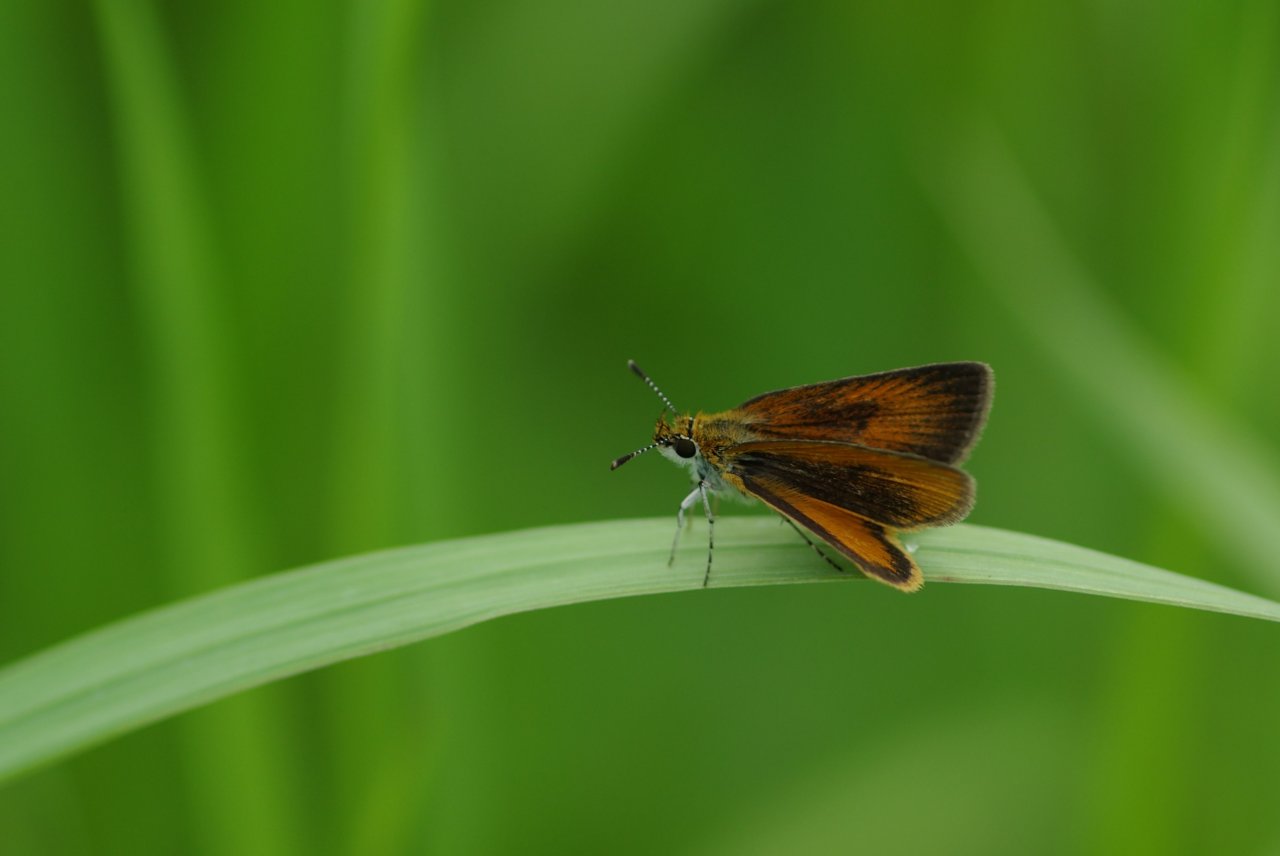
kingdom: Animalia
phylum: Arthropoda
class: Insecta
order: Lepidoptera
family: Hesperiidae
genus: Ancyloxypha
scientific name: Ancyloxypha numitor
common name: Least Skipper
